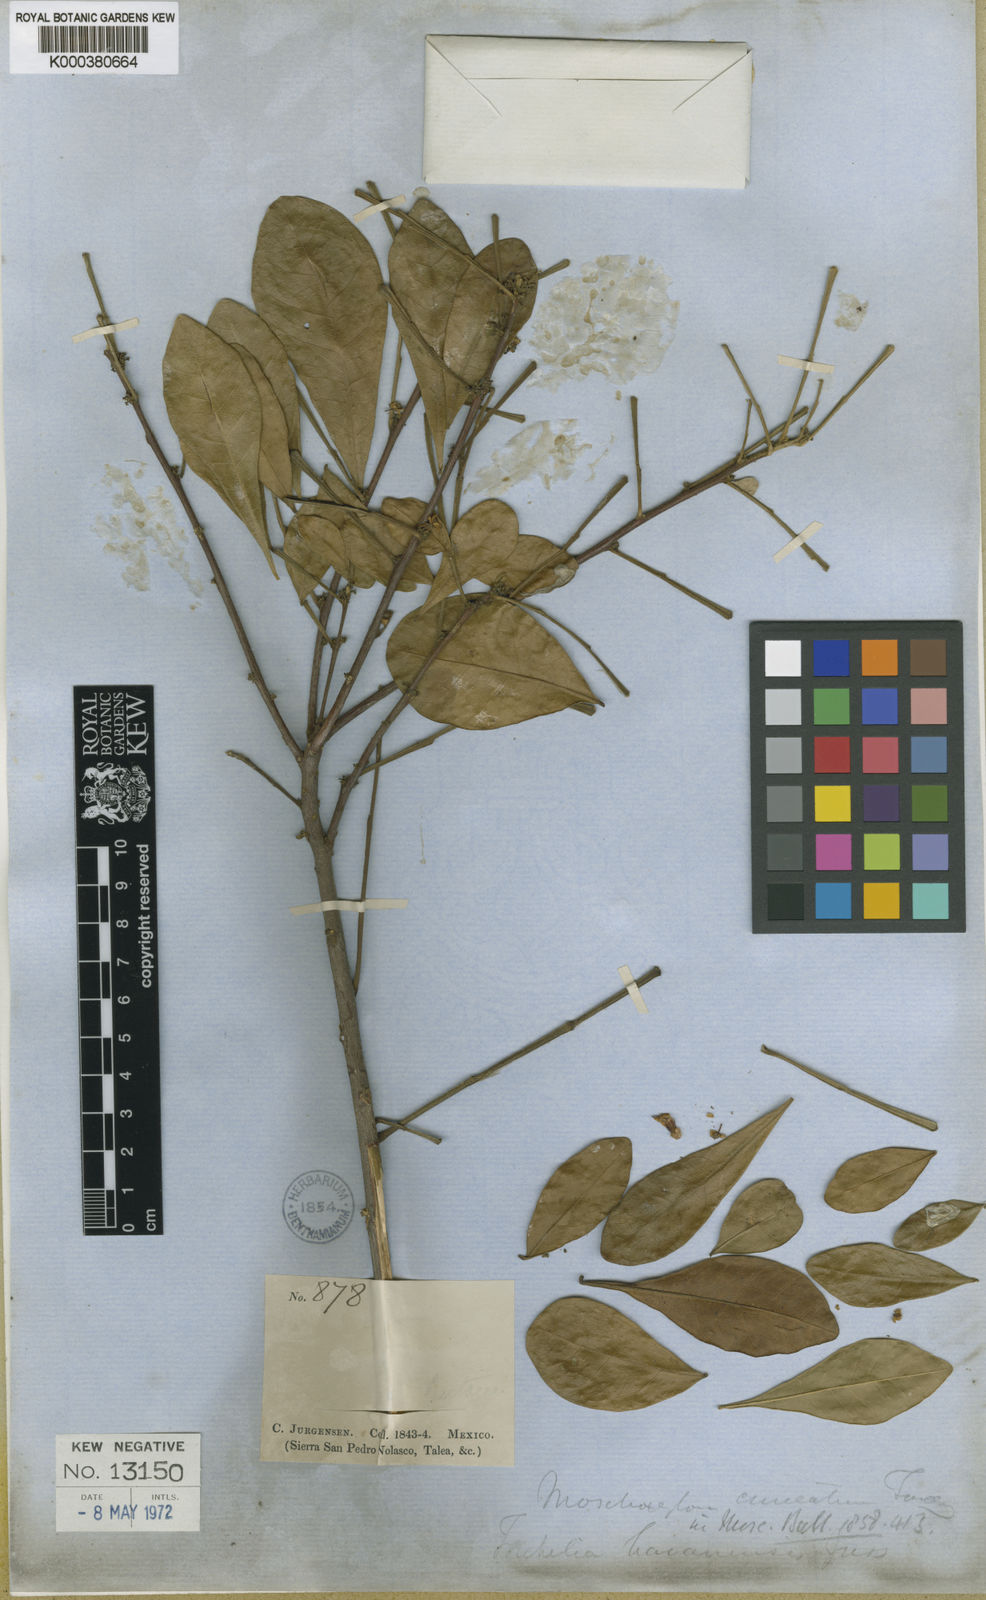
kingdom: Plantae
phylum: Tracheophyta
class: Magnoliopsida
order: Sapindales
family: Meliaceae
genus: Trichilia
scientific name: Trichilia havanensis
